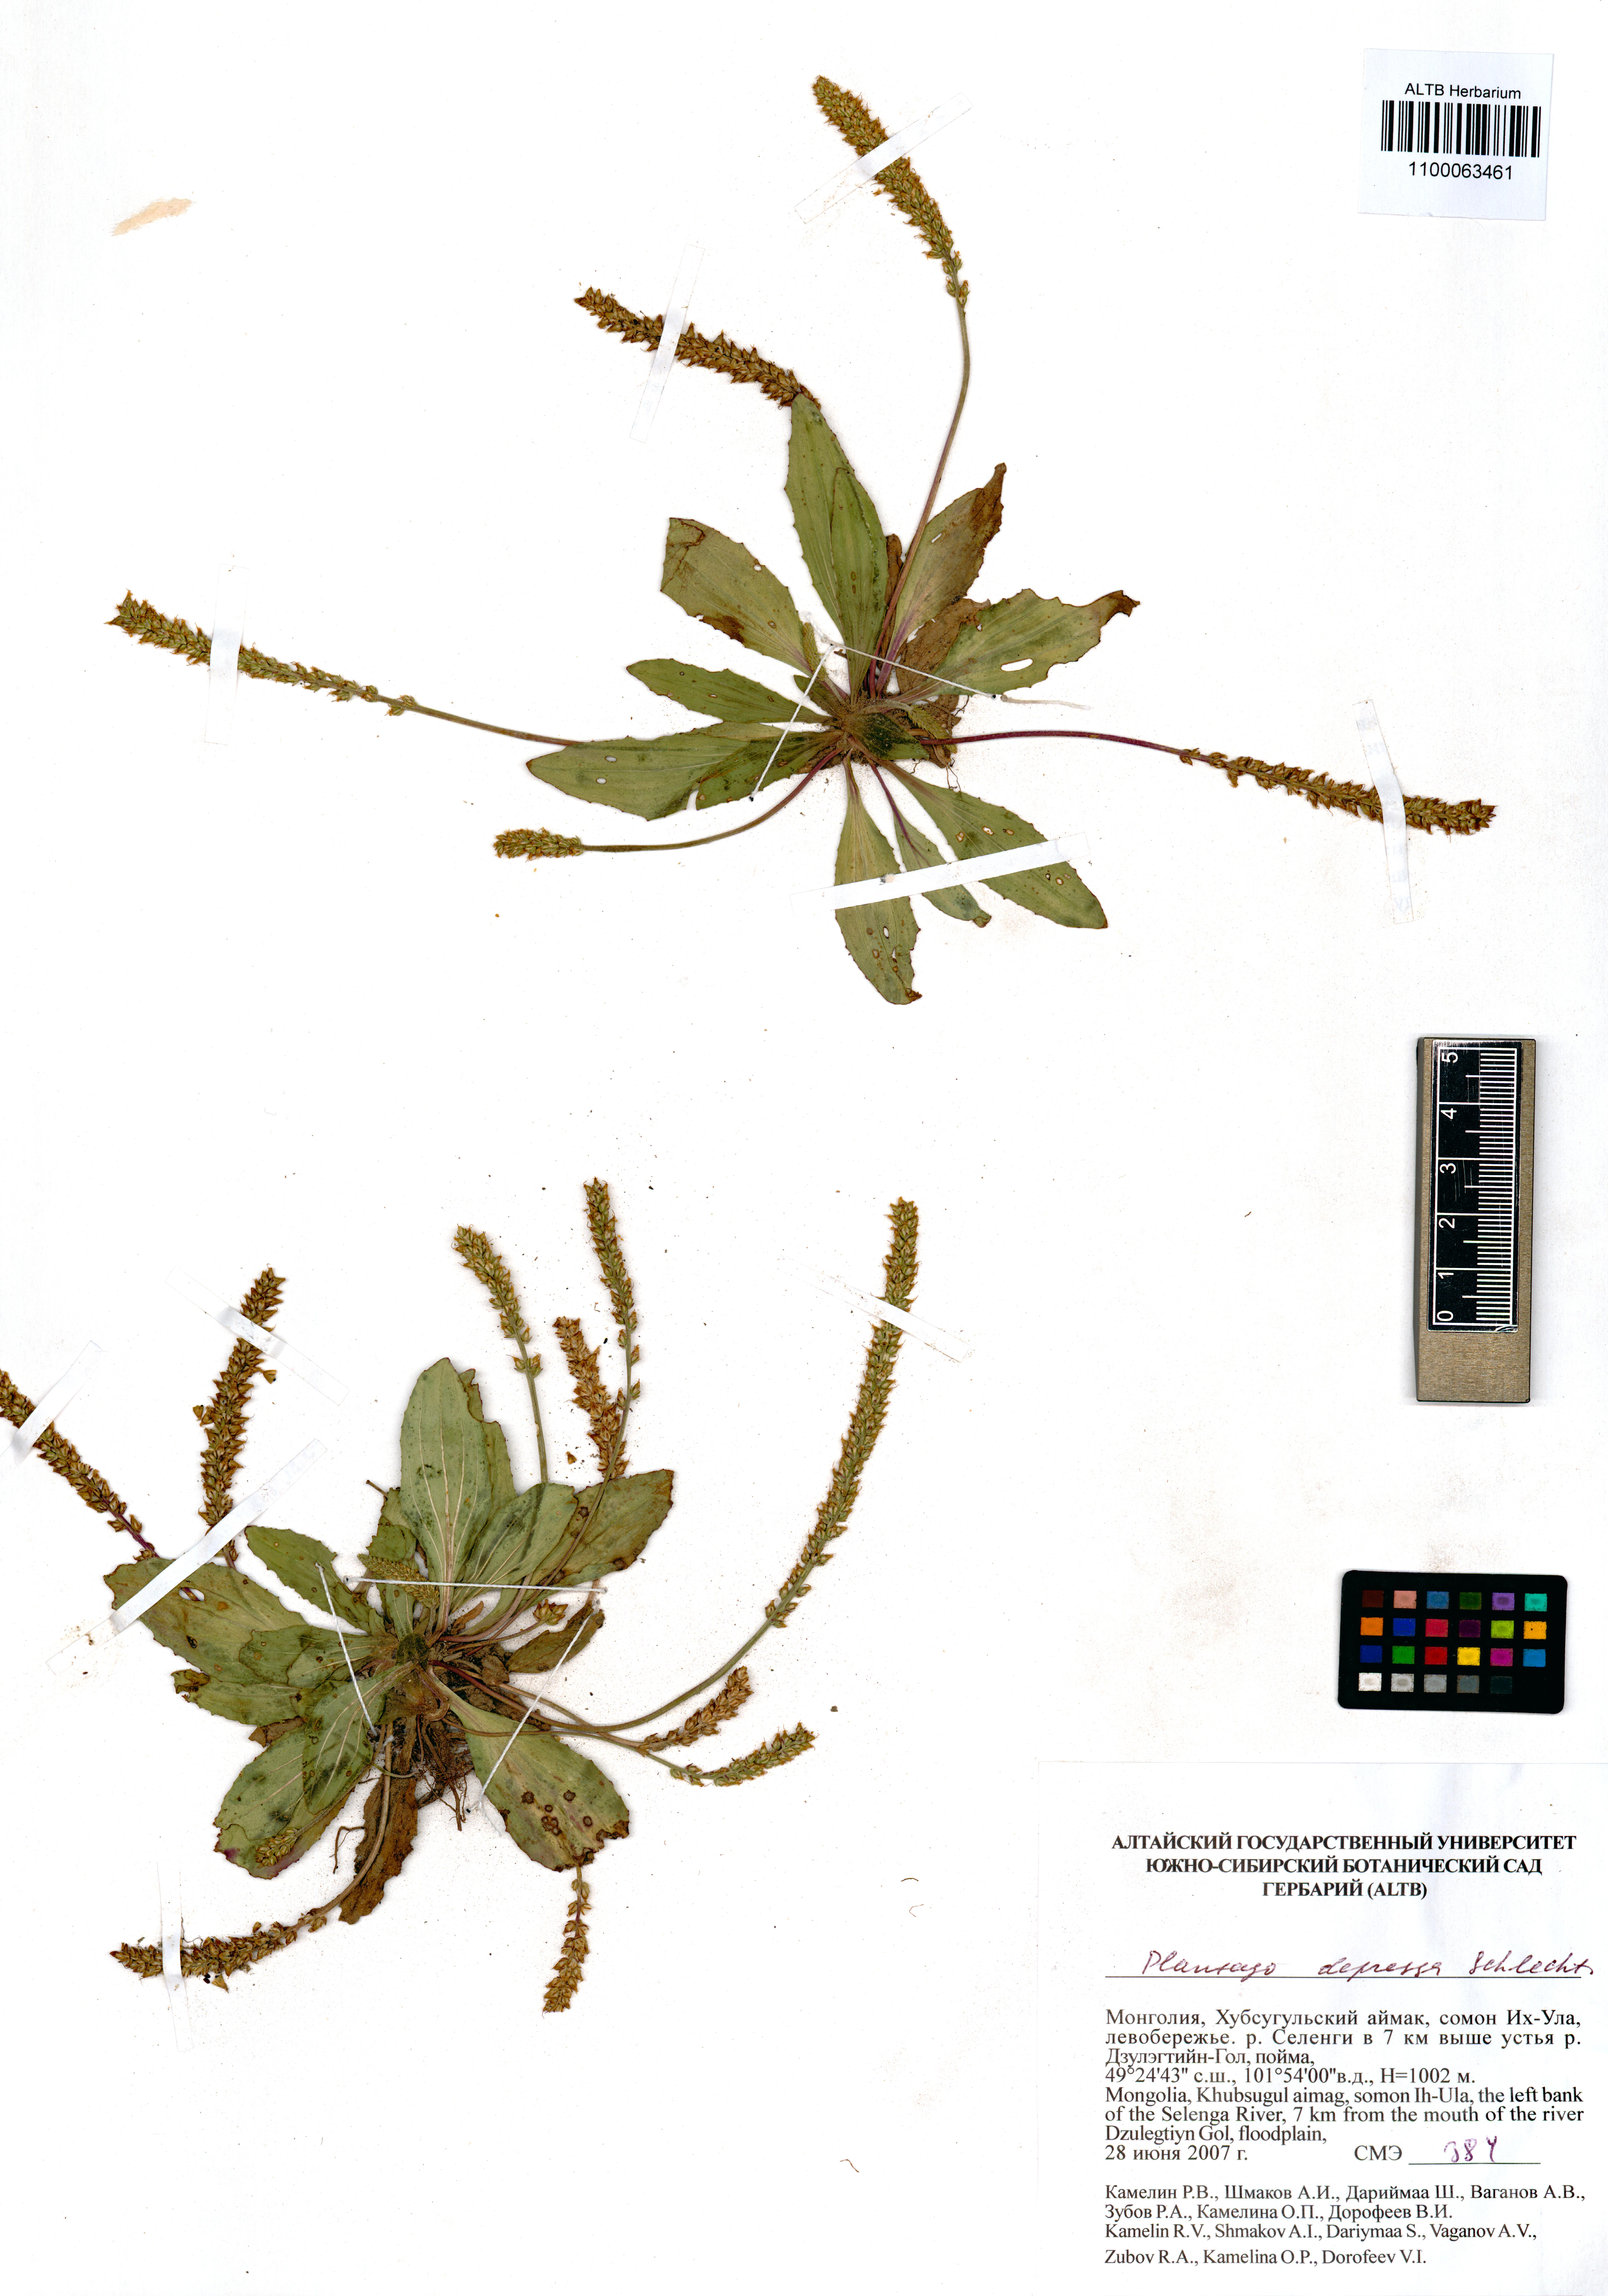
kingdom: Plantae
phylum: Tracheophyta
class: Magnoliopsida
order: Lamiales
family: Plantaginaceae
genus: Plantago
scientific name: Plantago depressa
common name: Depressed plantain
